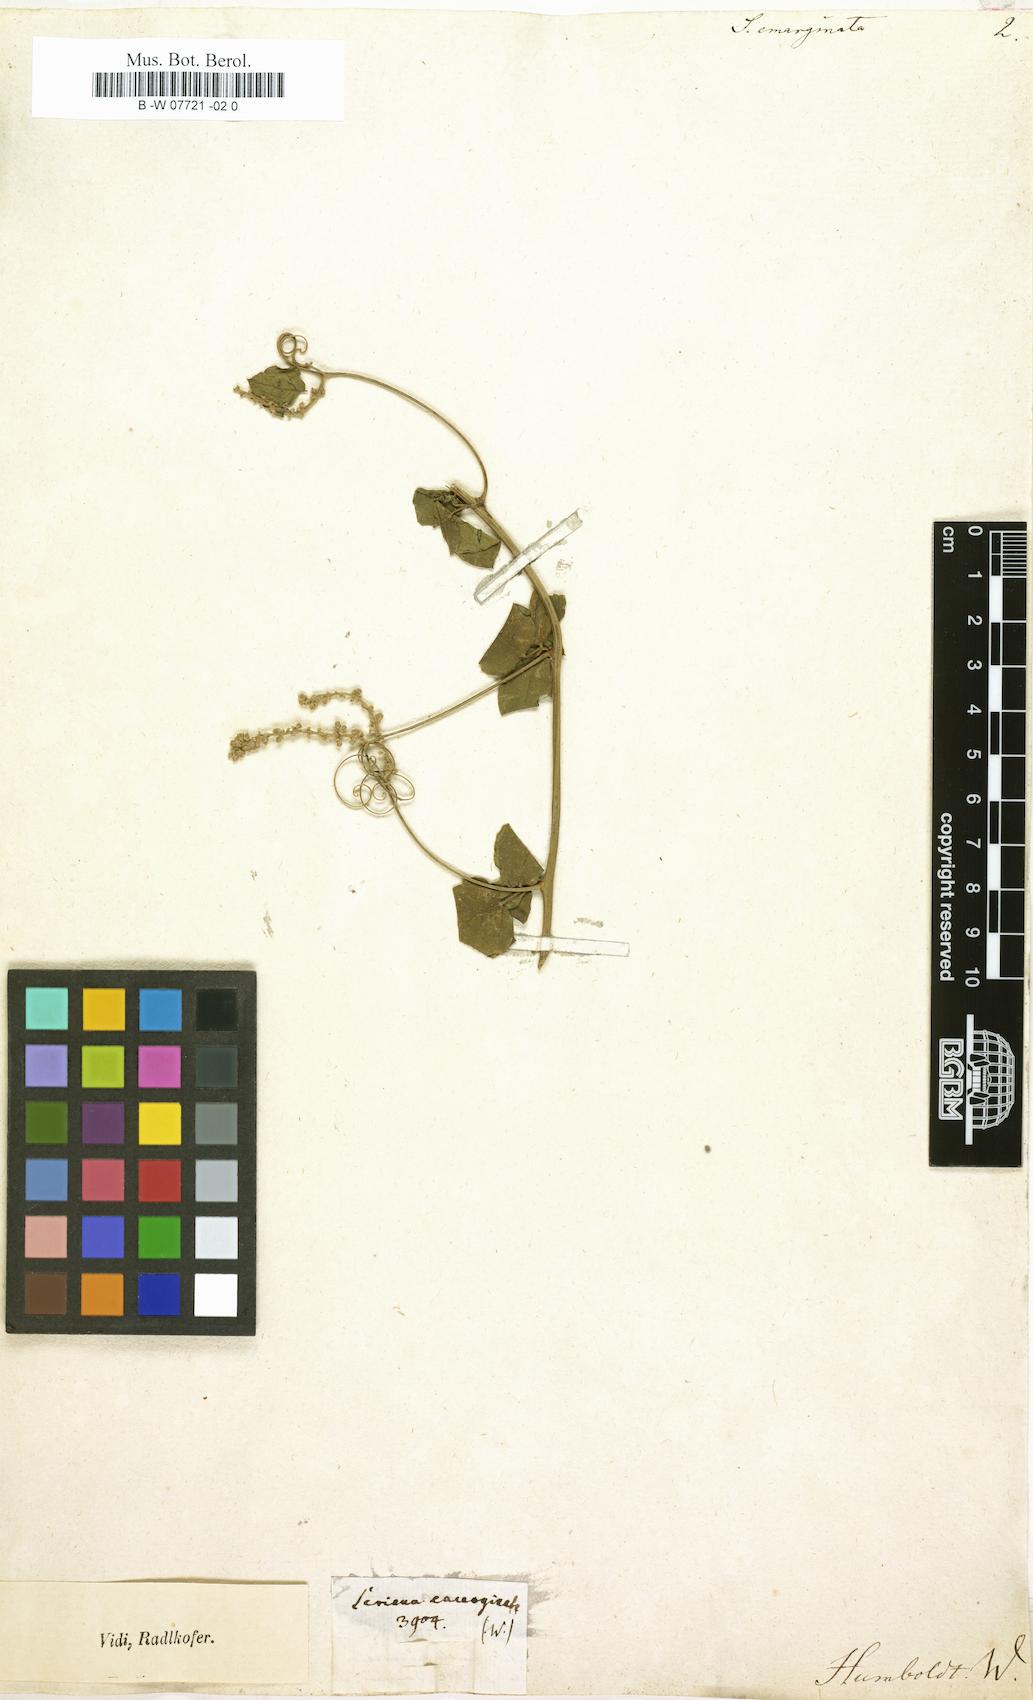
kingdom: Plantae
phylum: Tracheophyta
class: Magnoliopsida
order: Sapindales
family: Sapindaceae
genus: Serjania
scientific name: Serjania emarginata
